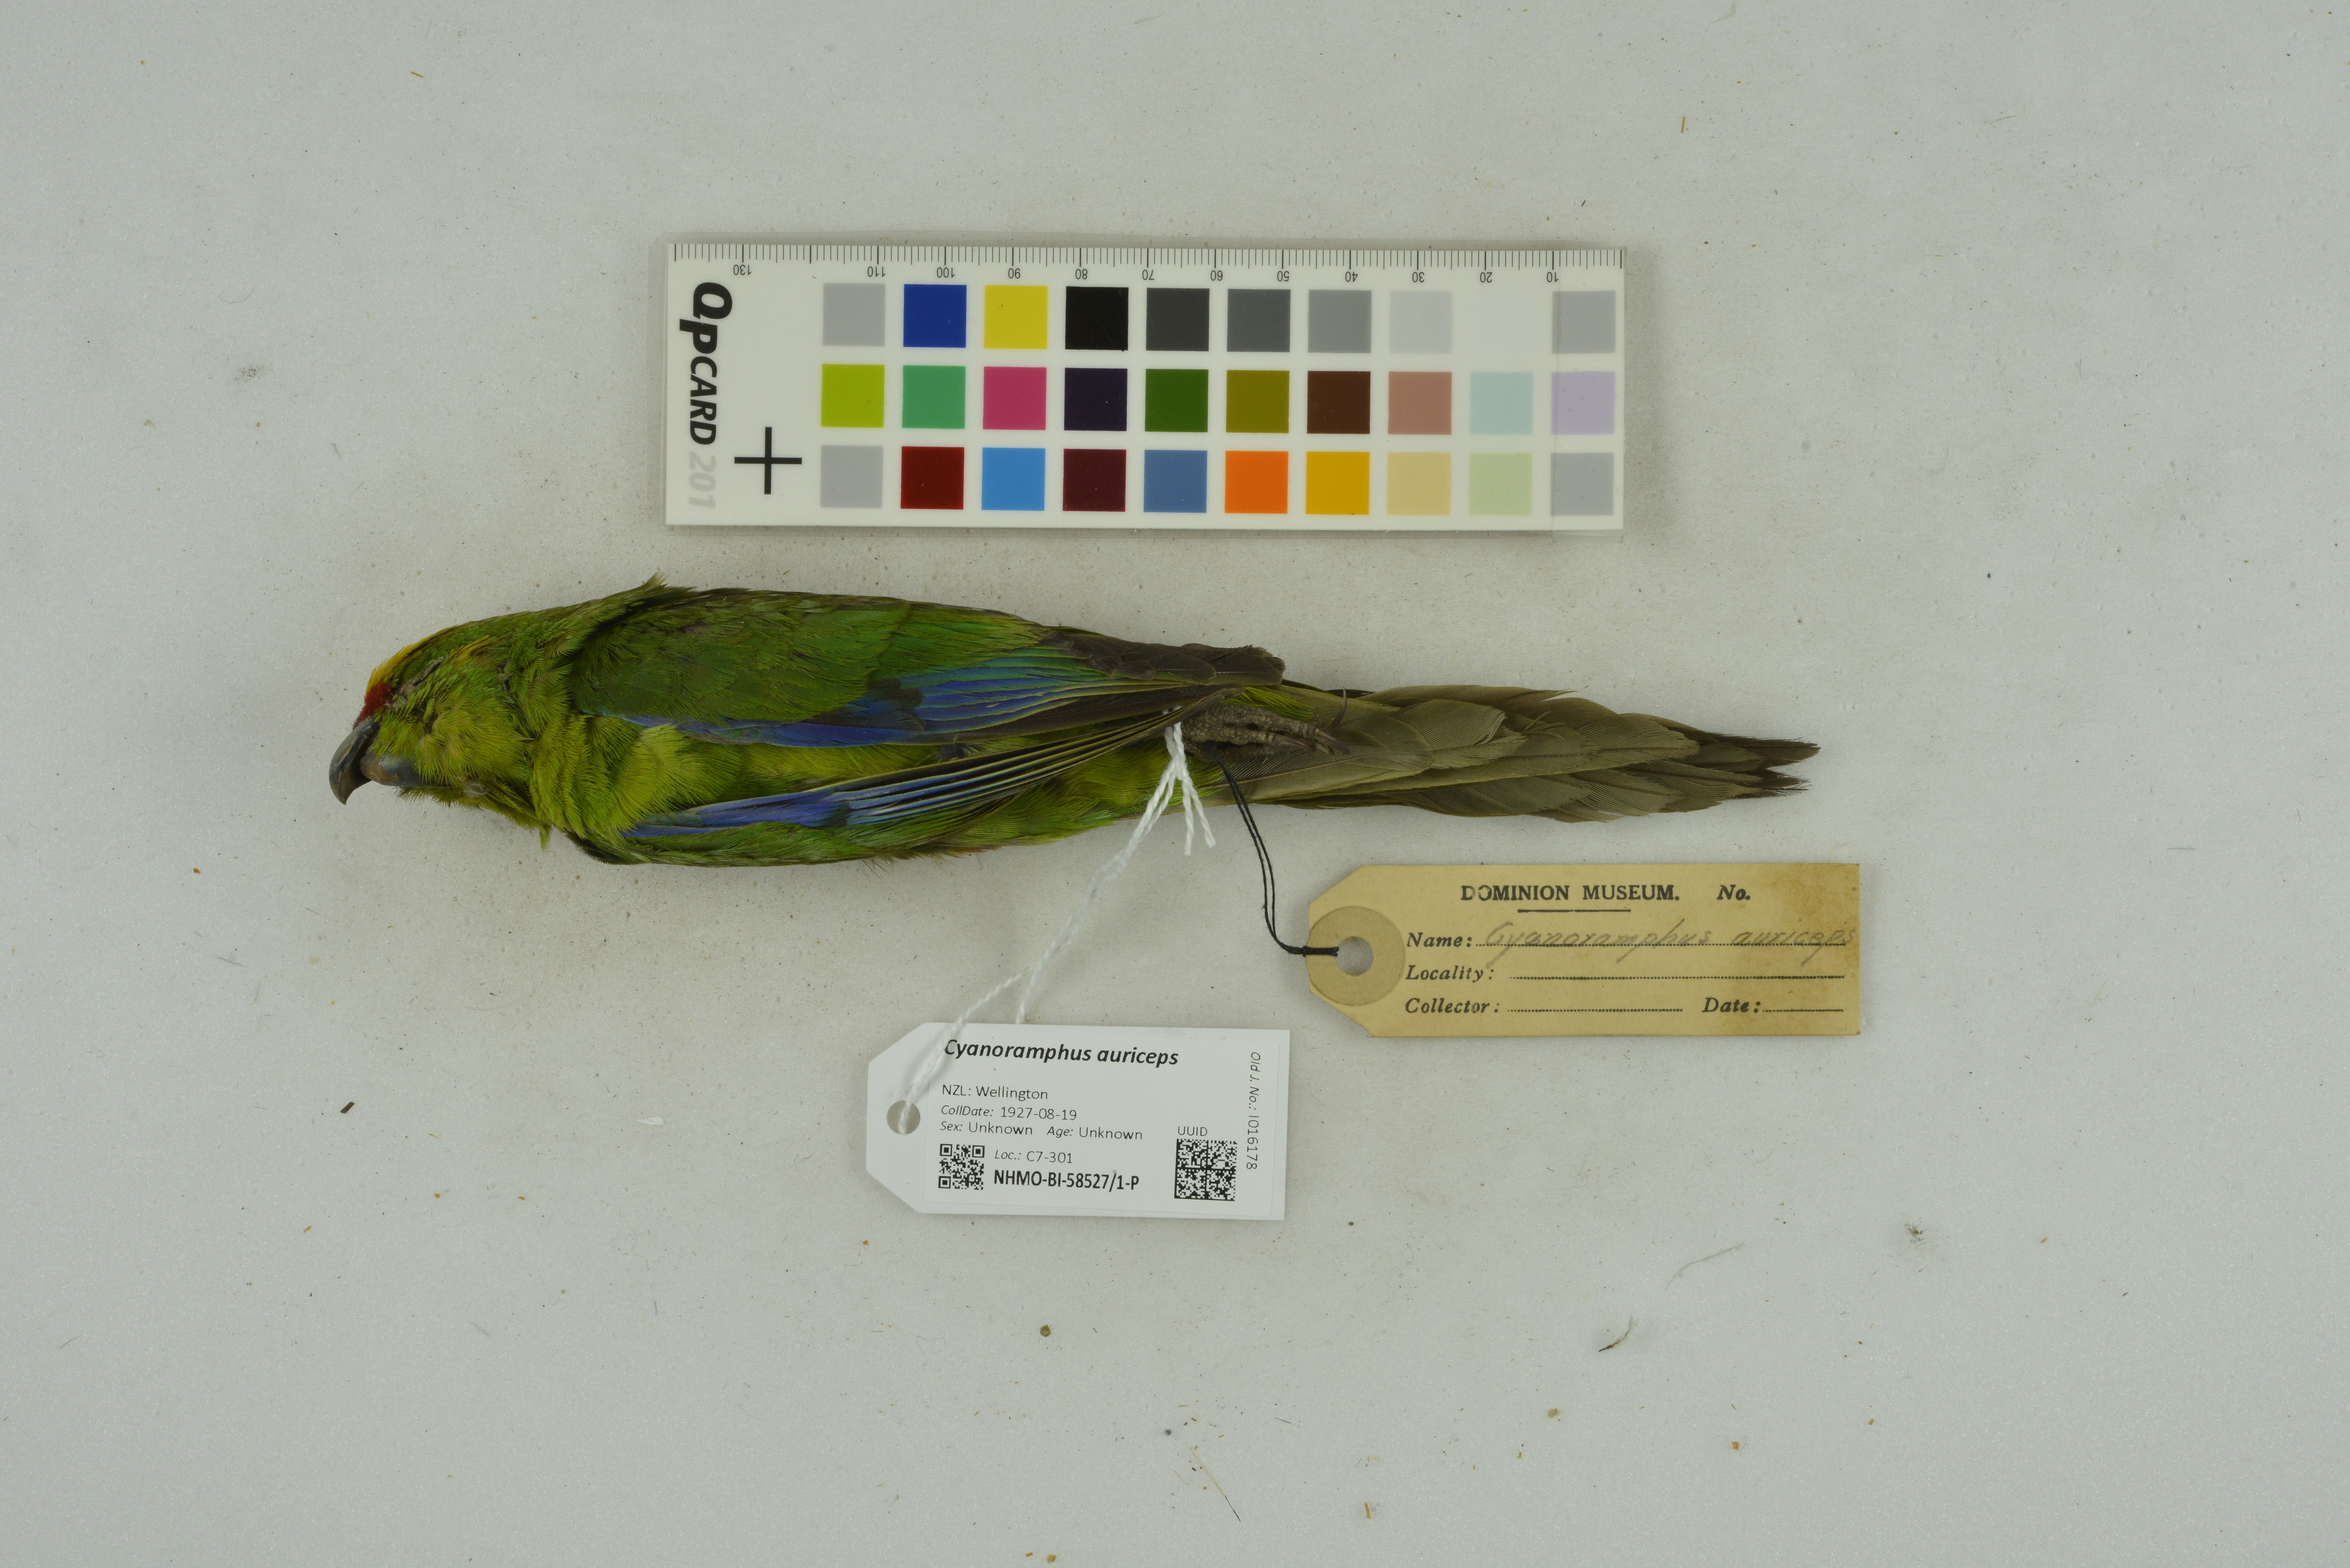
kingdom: Animalia
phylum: Chordata
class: Aves
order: Psittaciformes
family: Psittacidae
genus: Cyanoramphus
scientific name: Cyanoramphus auriceps
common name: Yellow-crowned parakeet
